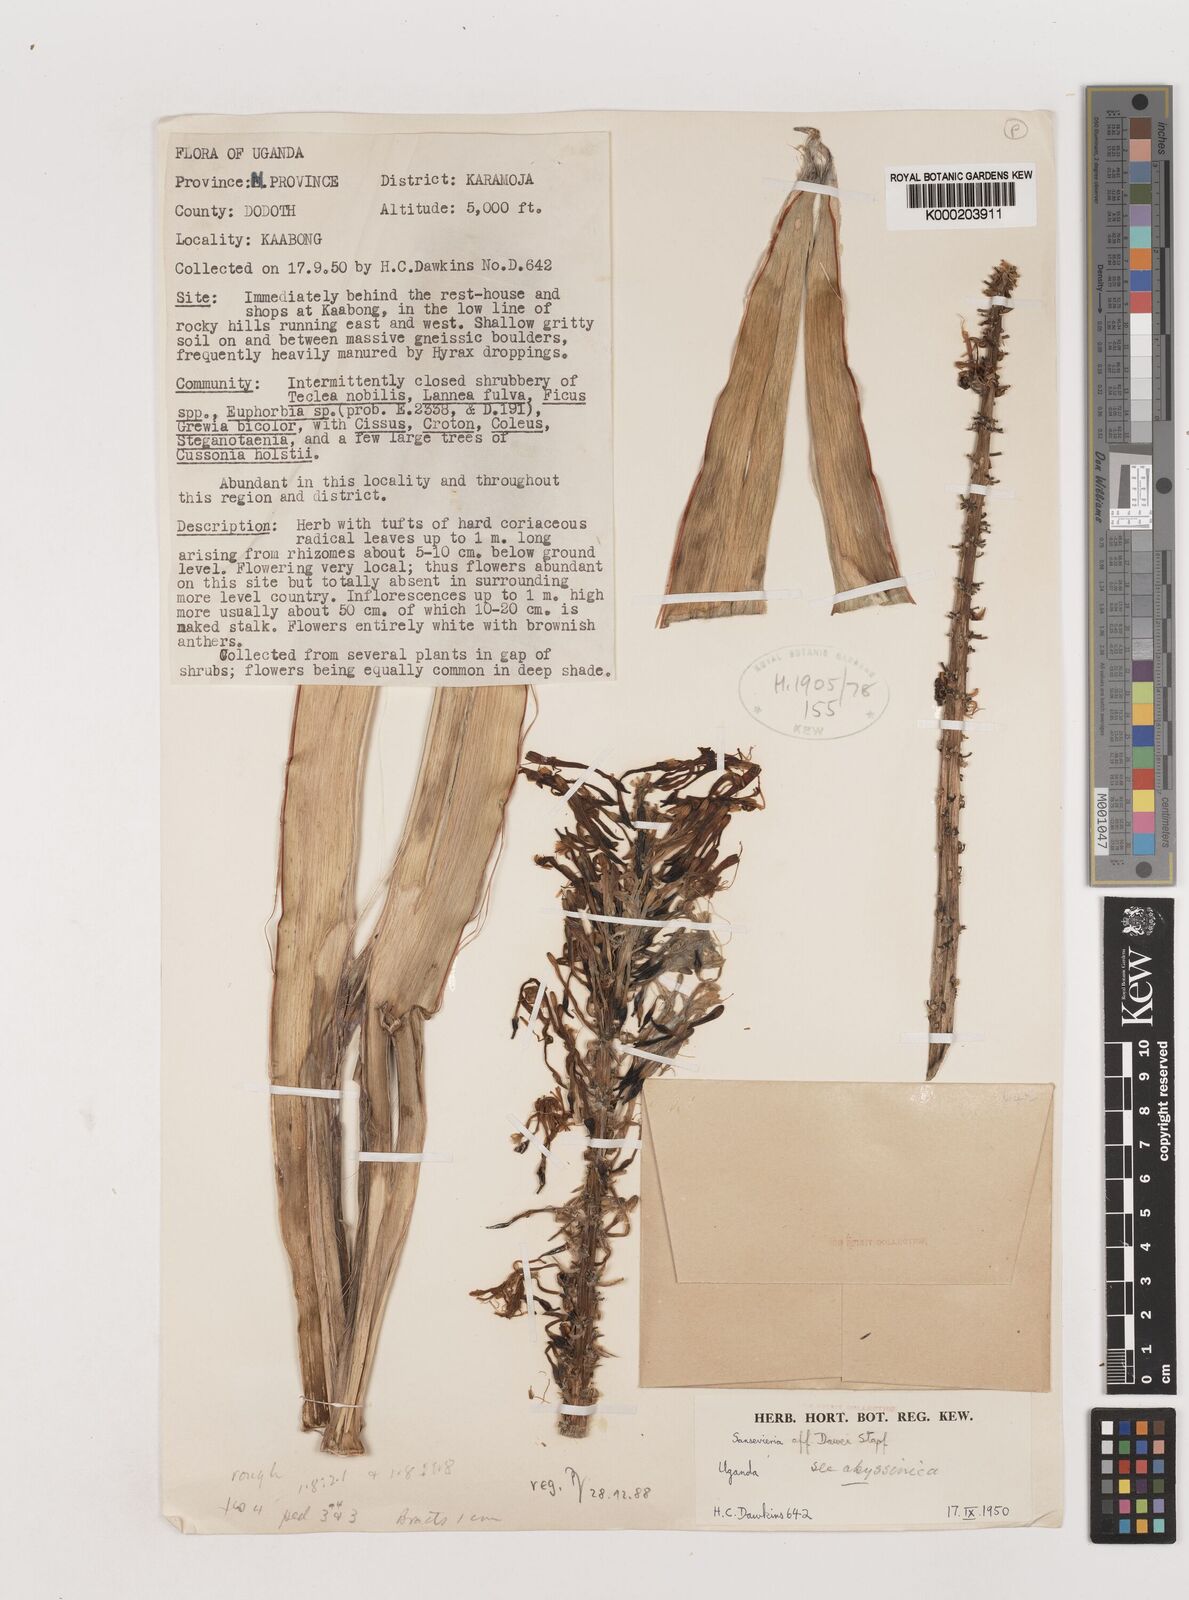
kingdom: Plantae
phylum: Tracheophyta
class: Liliopsida
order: Asparagales
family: Asparagaceae
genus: Dracaena
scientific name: Dracaena dawei
